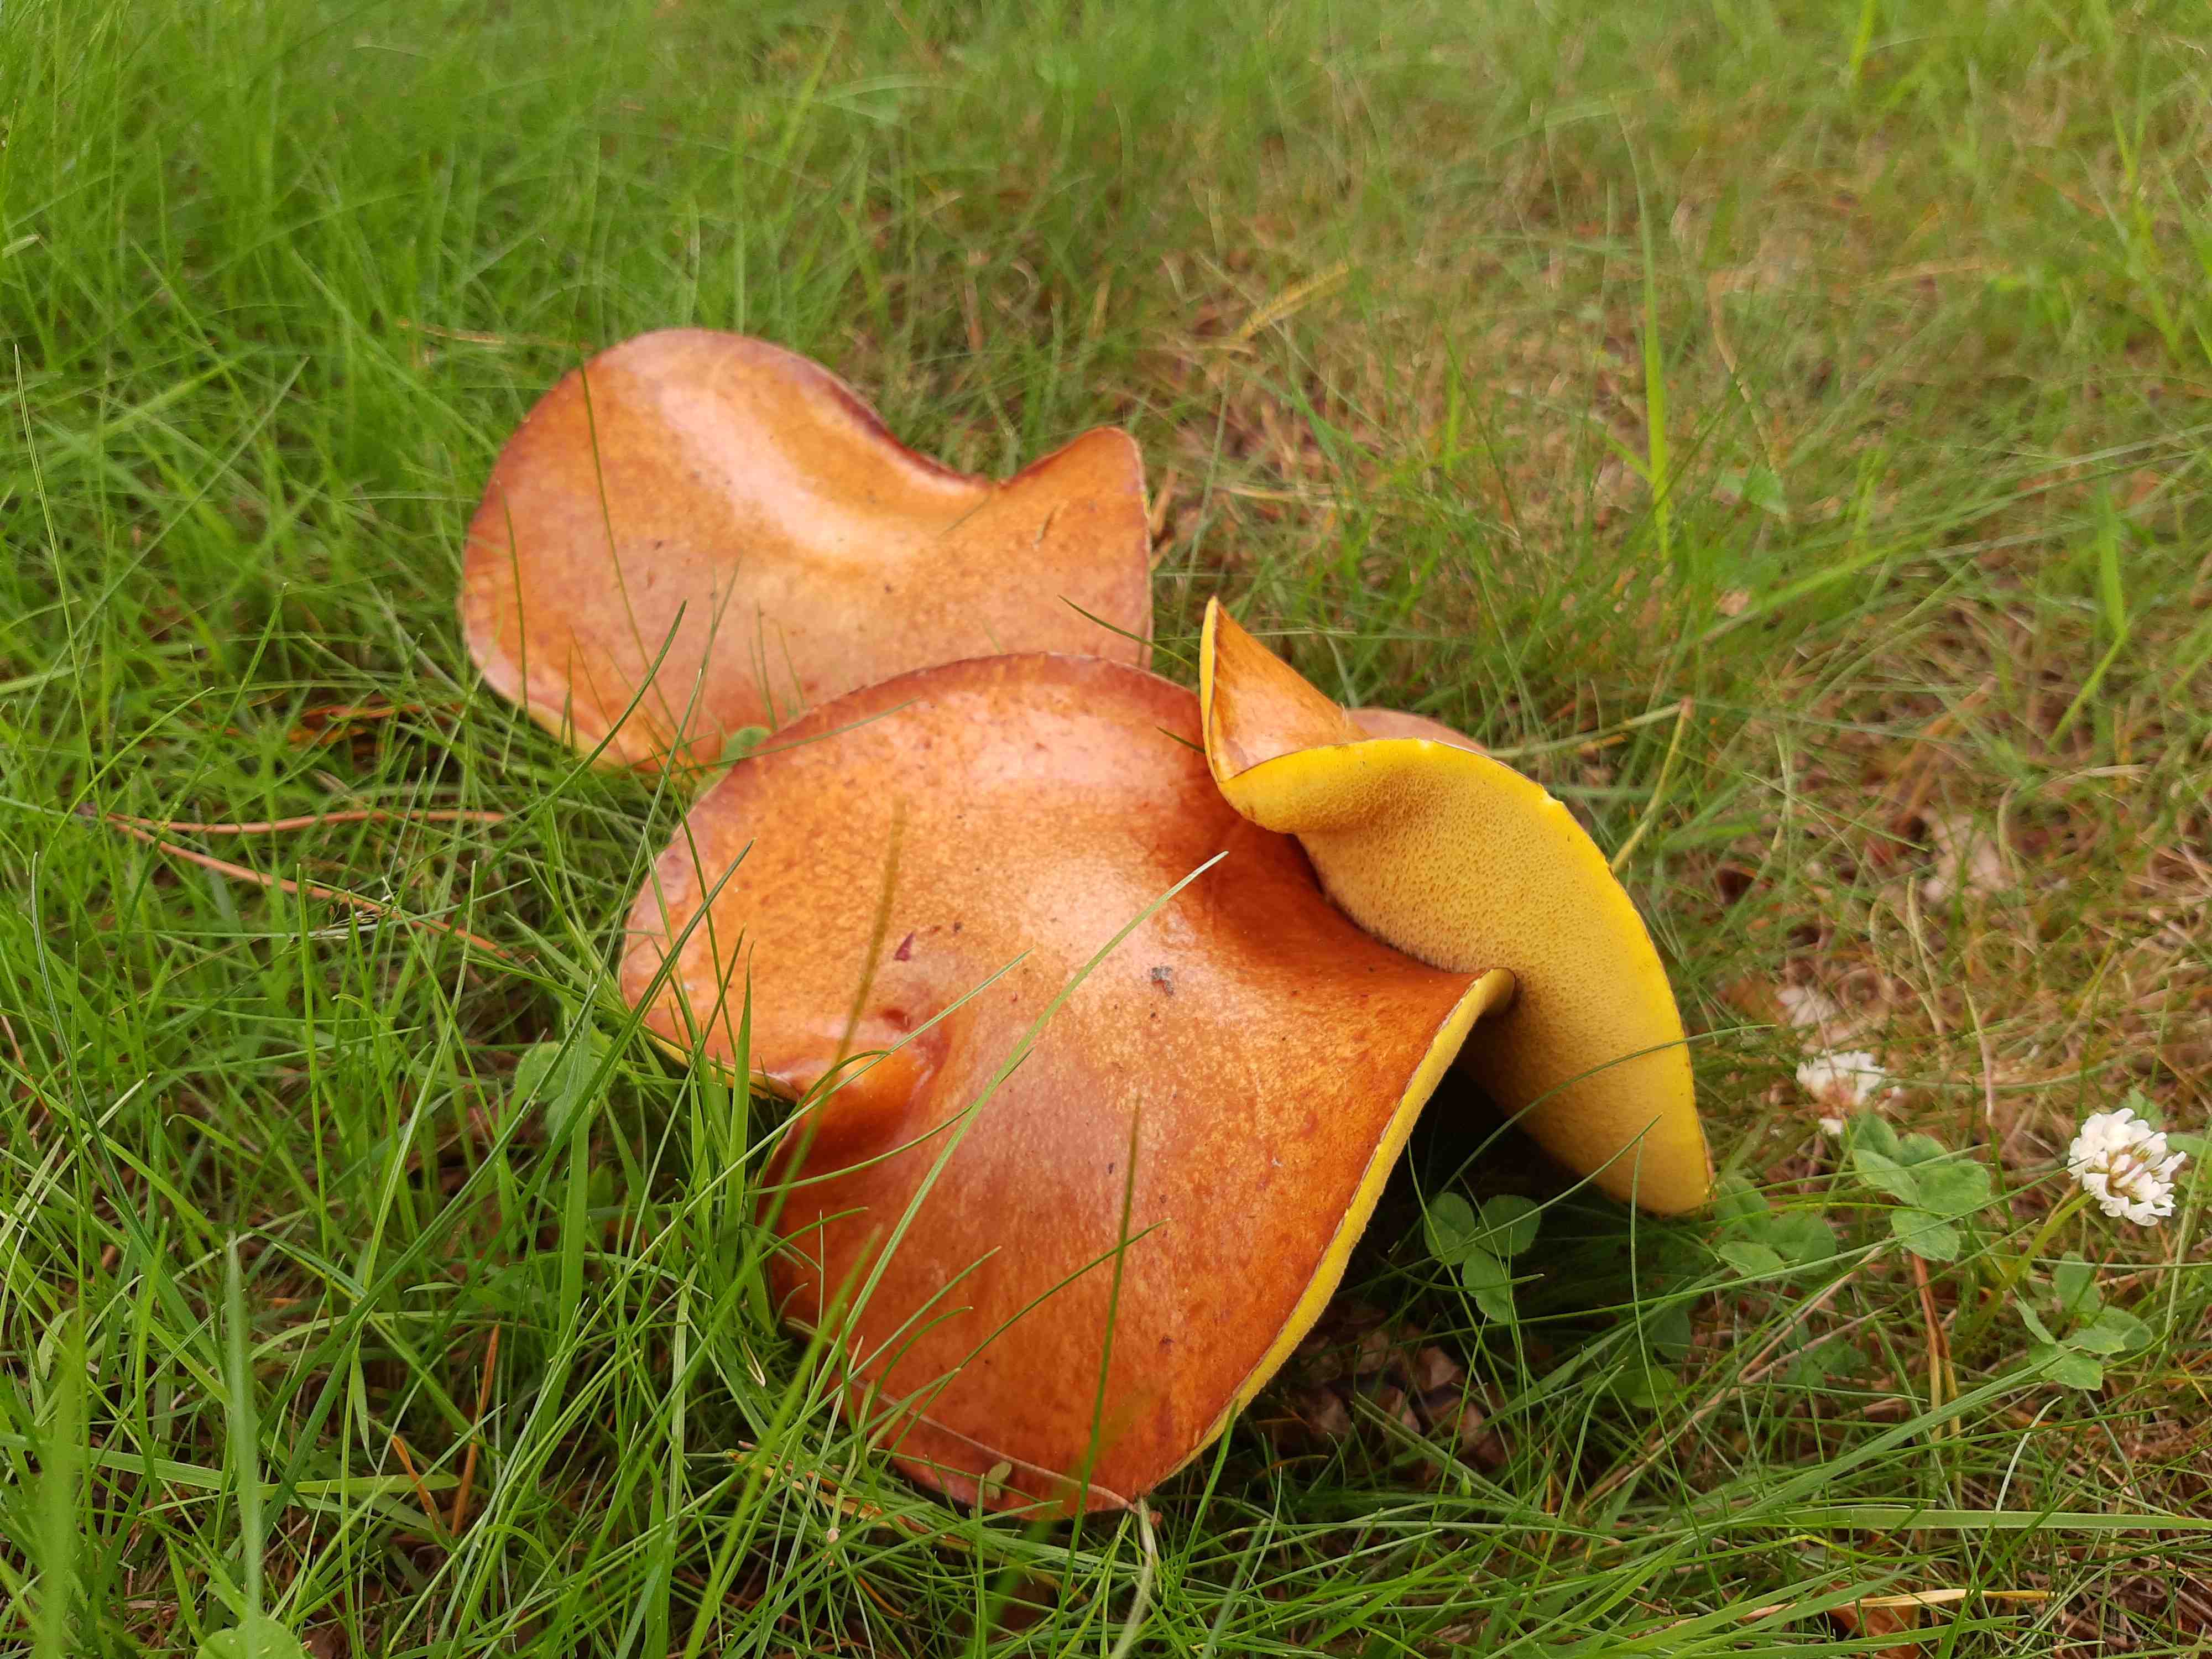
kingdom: Fungi
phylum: Basidiomycota
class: Agaricomycetes
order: Boletales
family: Suillaceae
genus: Suillus
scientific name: Suillus granulatus
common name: kornet slimrørhat
